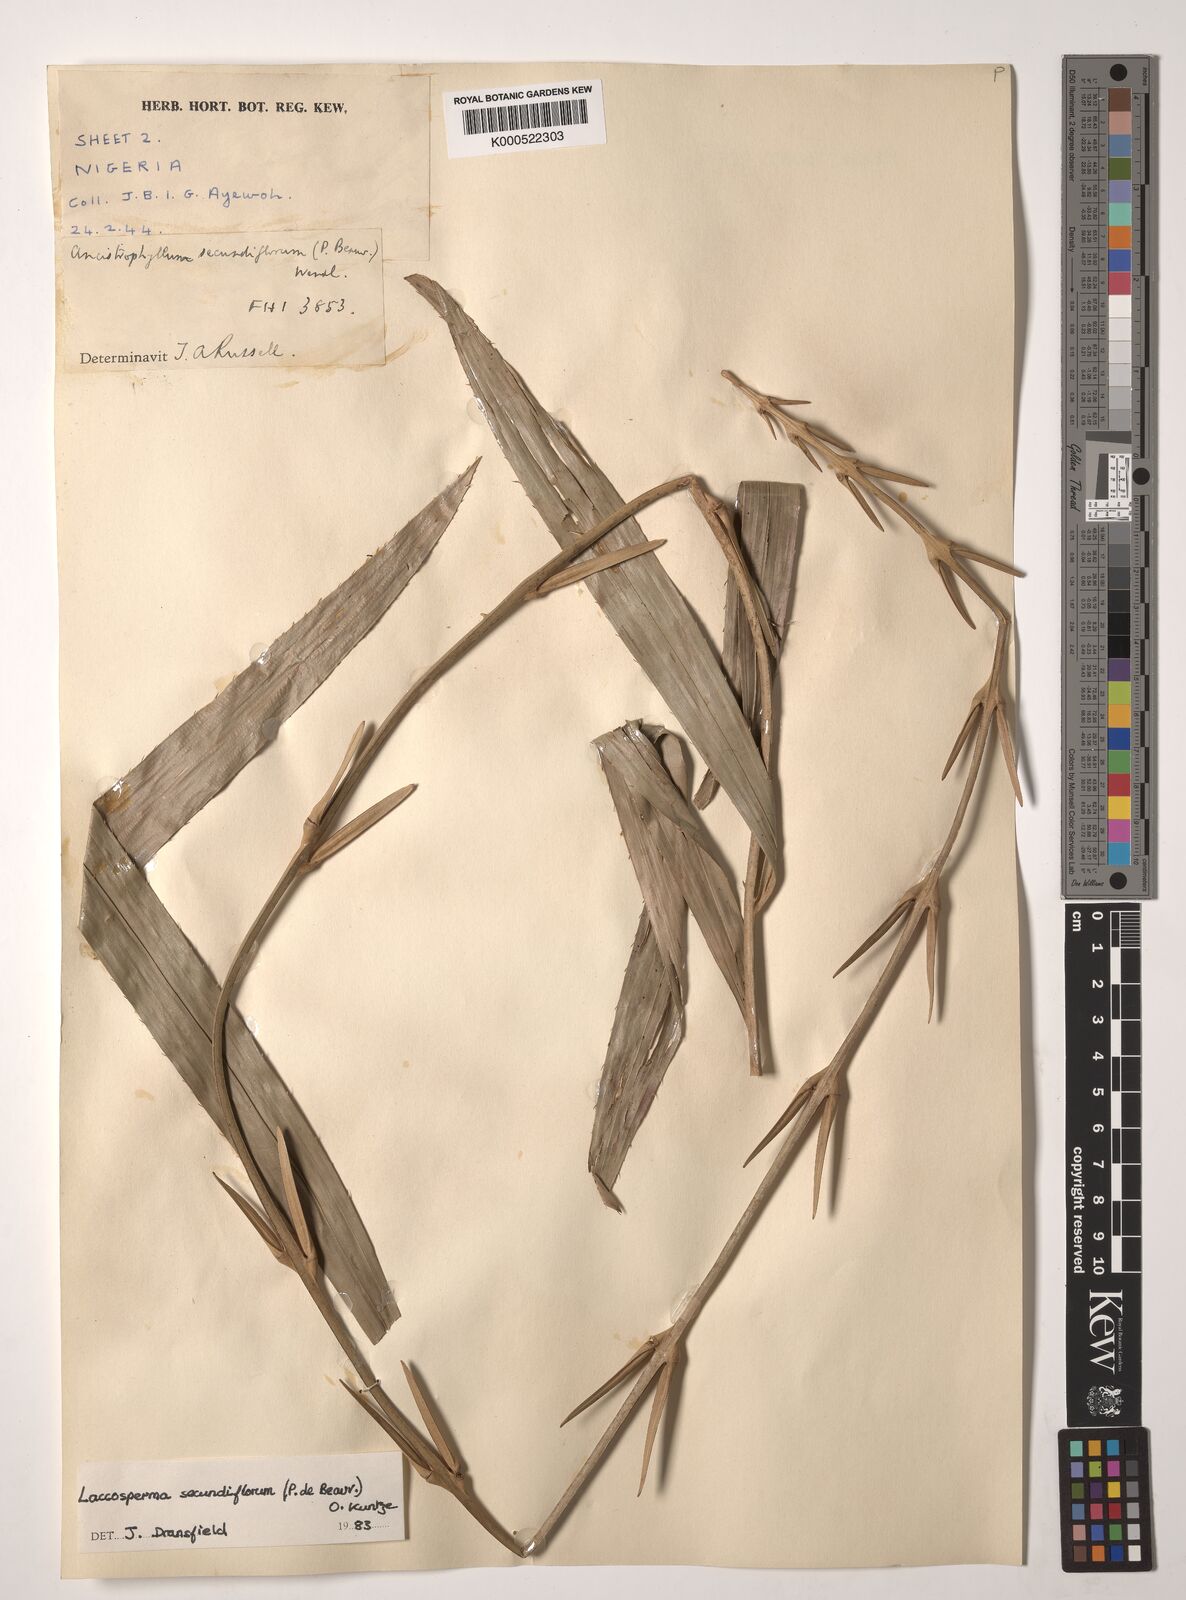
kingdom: Plantae
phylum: Tracheophyta
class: Liliopsida
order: Arecales
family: Arecaceae
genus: Laccosperma
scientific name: Laccosperma secundiflorum
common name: Rattan
